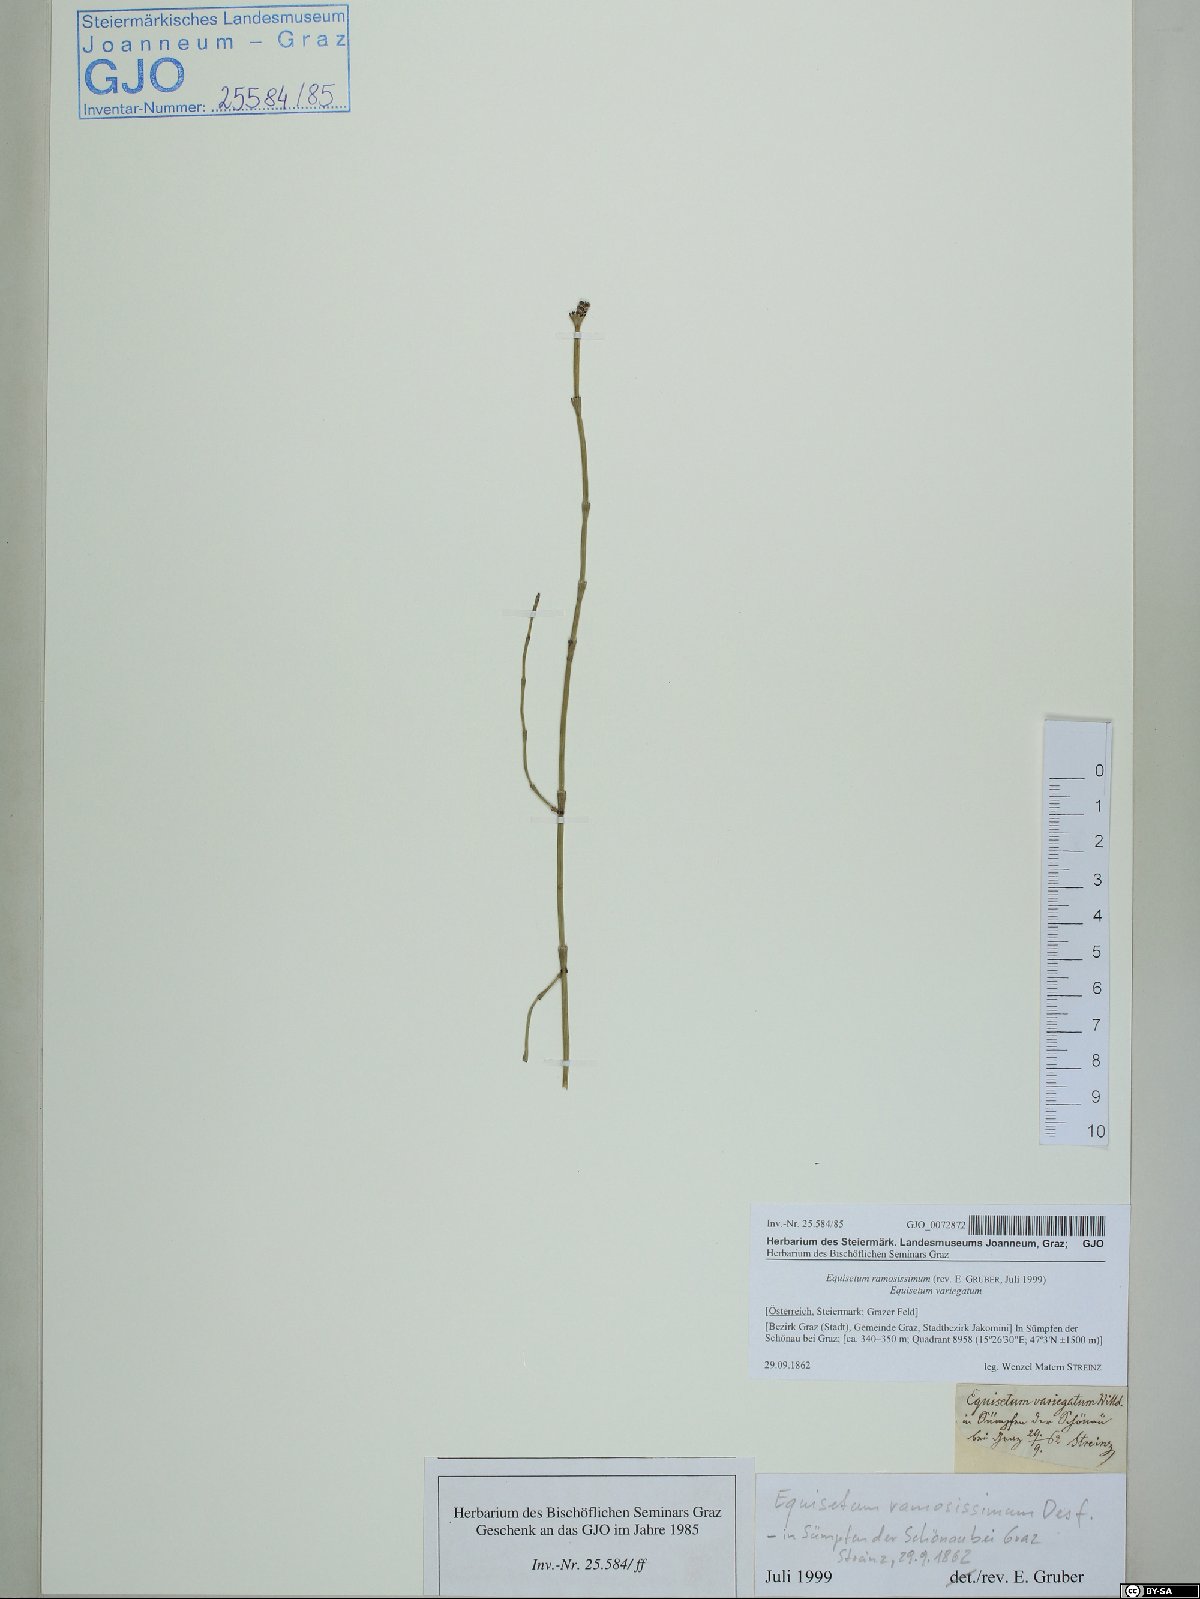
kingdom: Plantae
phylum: Tracheophyta
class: Polypodiopsida
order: Equisetales
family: Equisetaceae
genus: Equisetum
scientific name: Equisetum ramosissimum
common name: Branched horsetail
